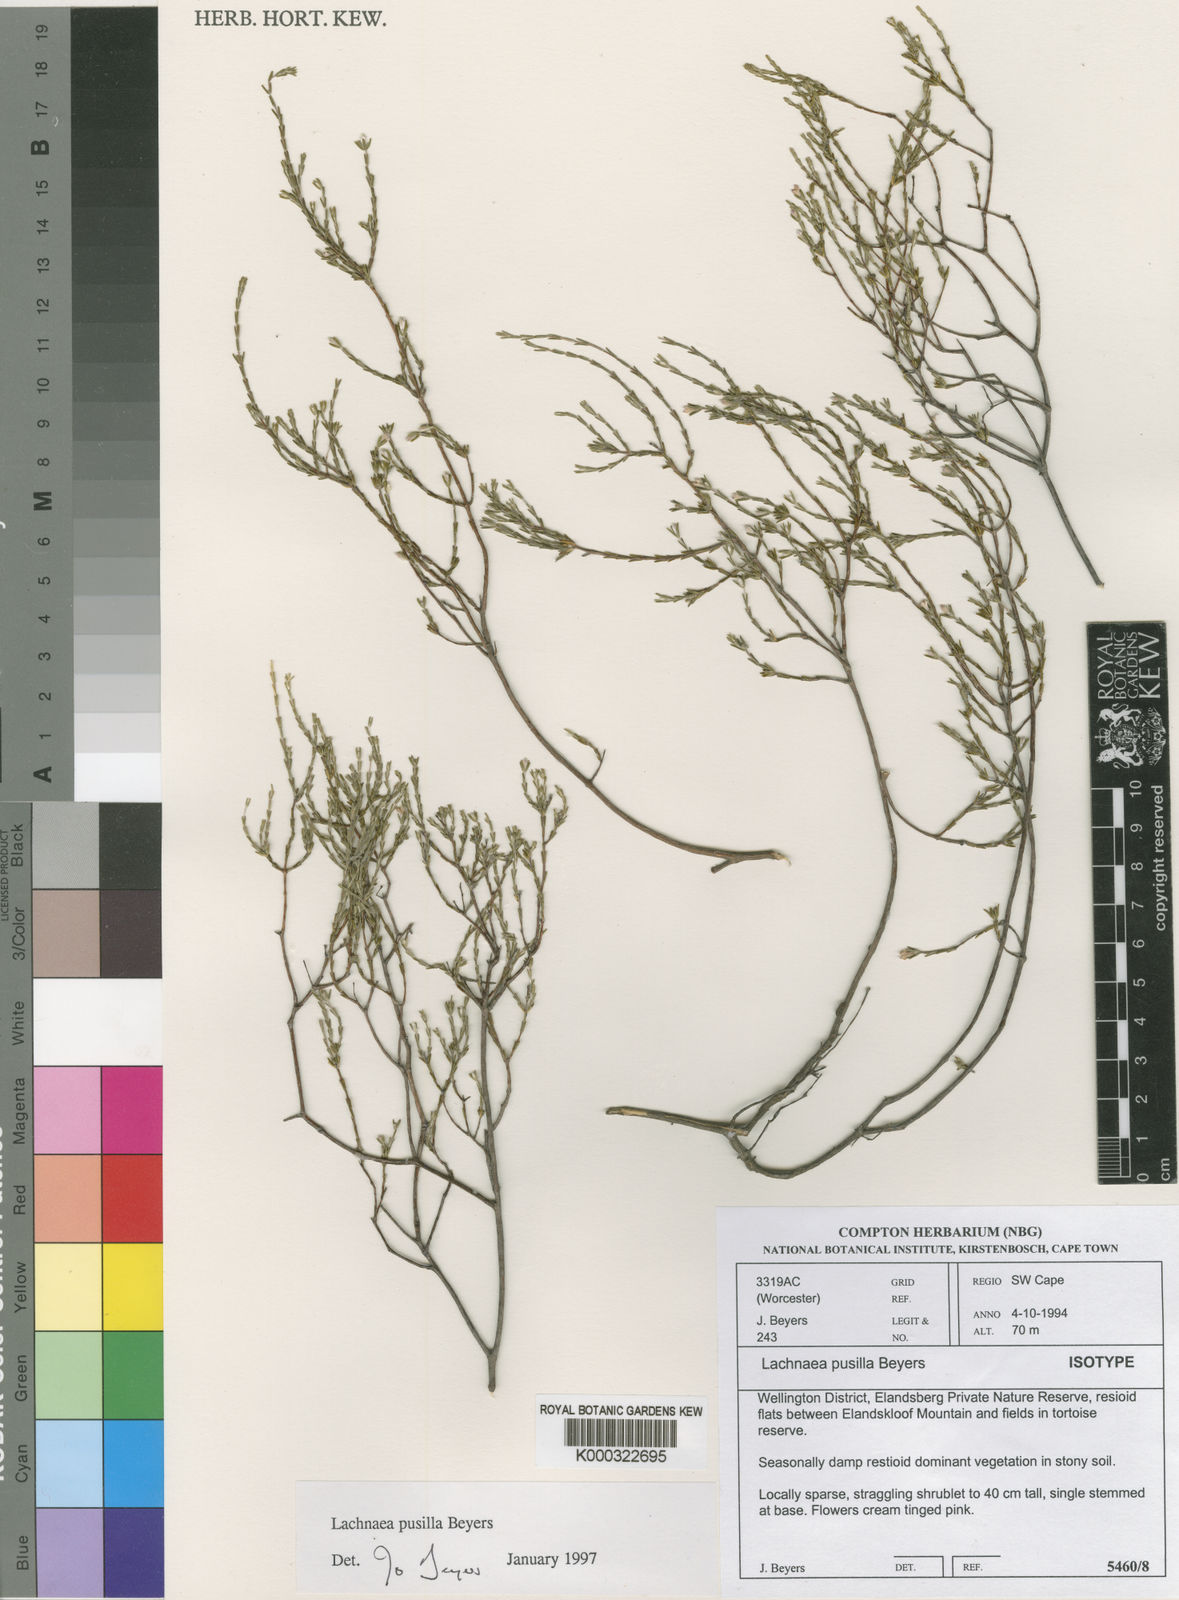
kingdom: Plantae
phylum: Tracheophyta
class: Magnoliopsida
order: Malvales
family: Thymelaeaceae
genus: Lachnaea
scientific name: Lachnaea pusilla
